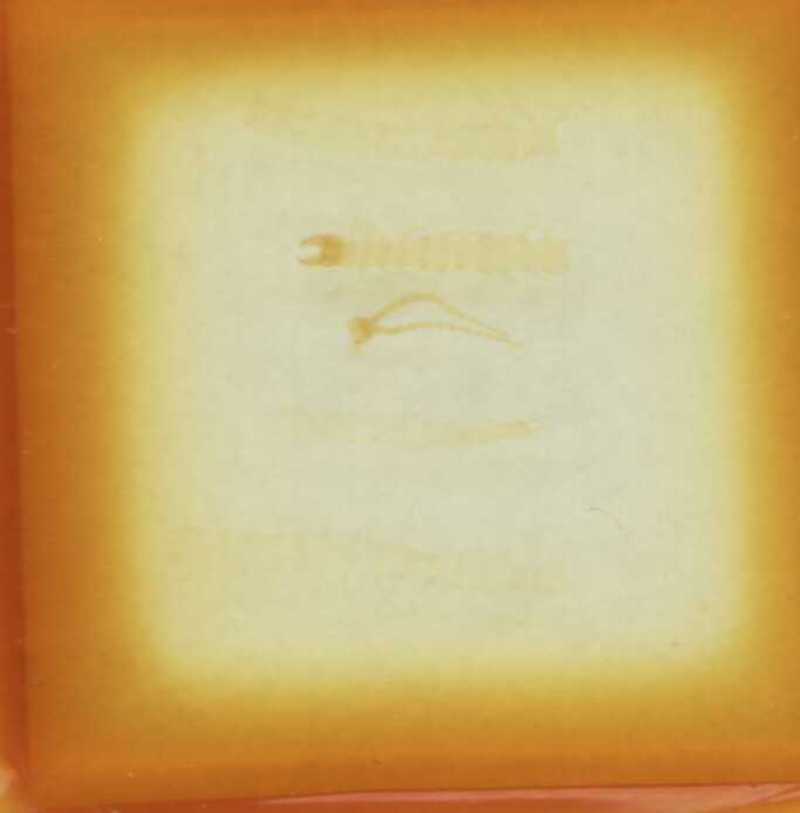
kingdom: Animalia
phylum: Arthropoda
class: Chilopoda
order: Geophilomorpha
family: Geophilidae
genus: Geophilus
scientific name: Geophilus osquidatum
